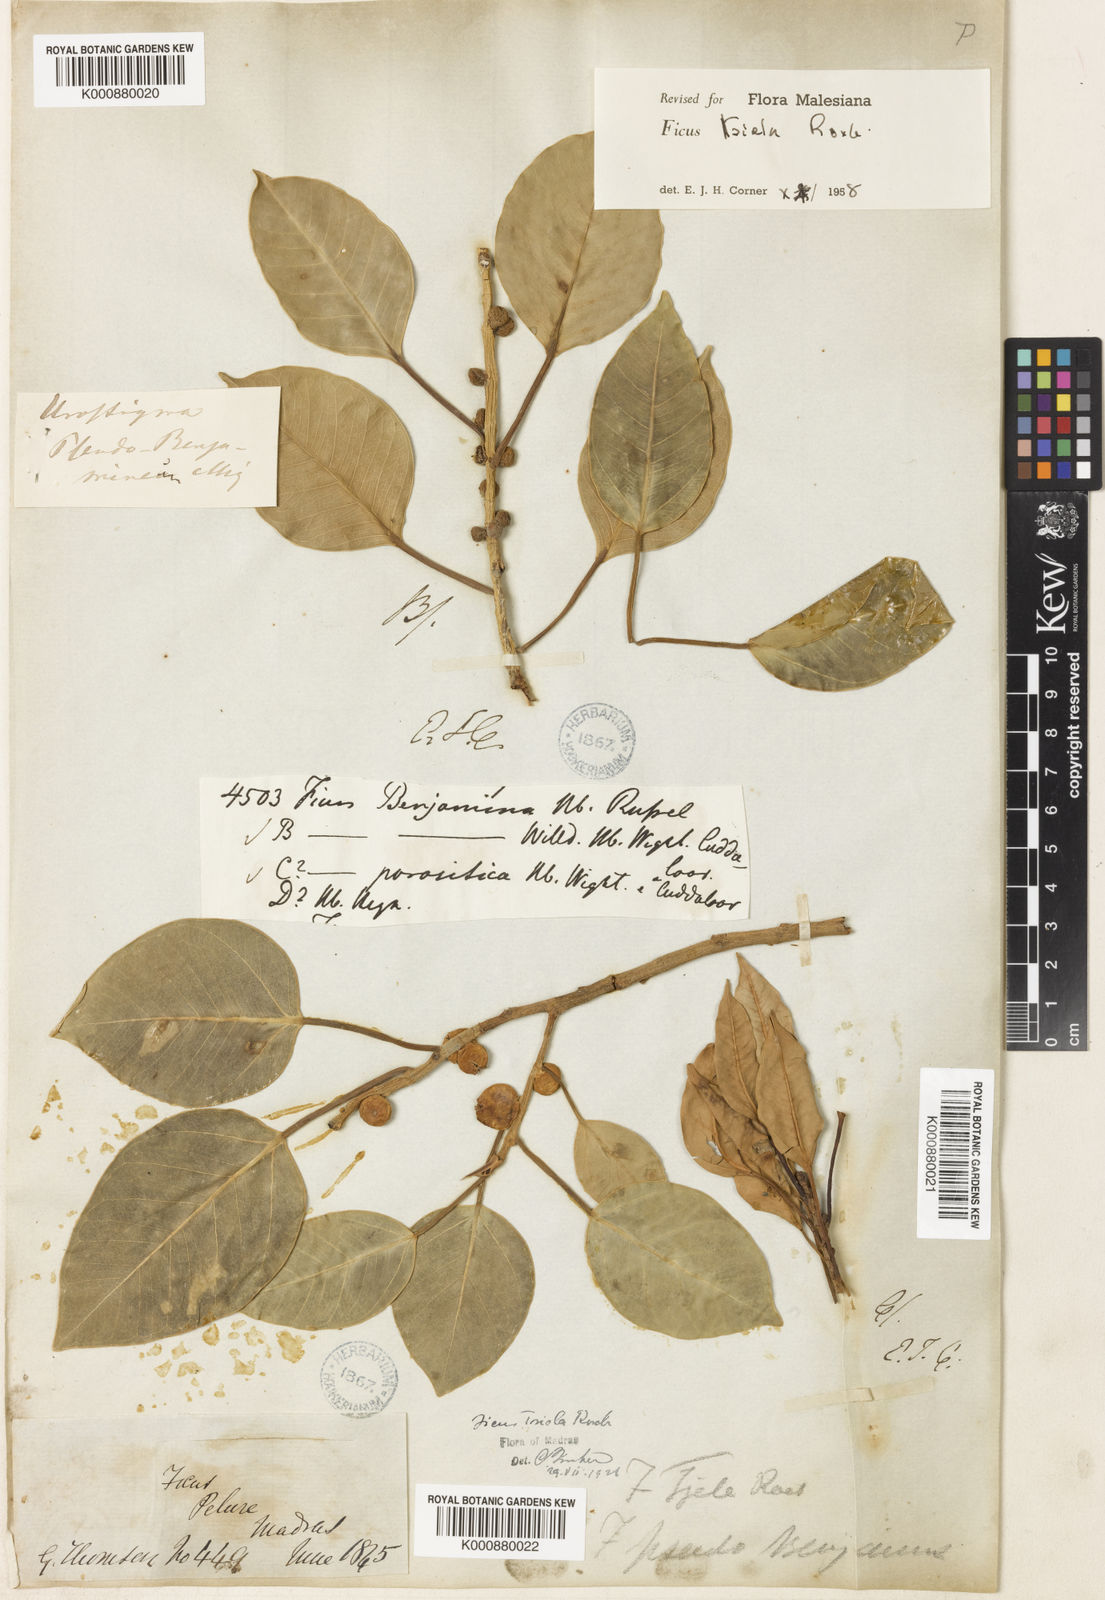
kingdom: Plantae
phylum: Tracheophyta
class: Magnoliopsida
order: Rosales
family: Moraceae
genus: Ficus
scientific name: Ficus amplissima
